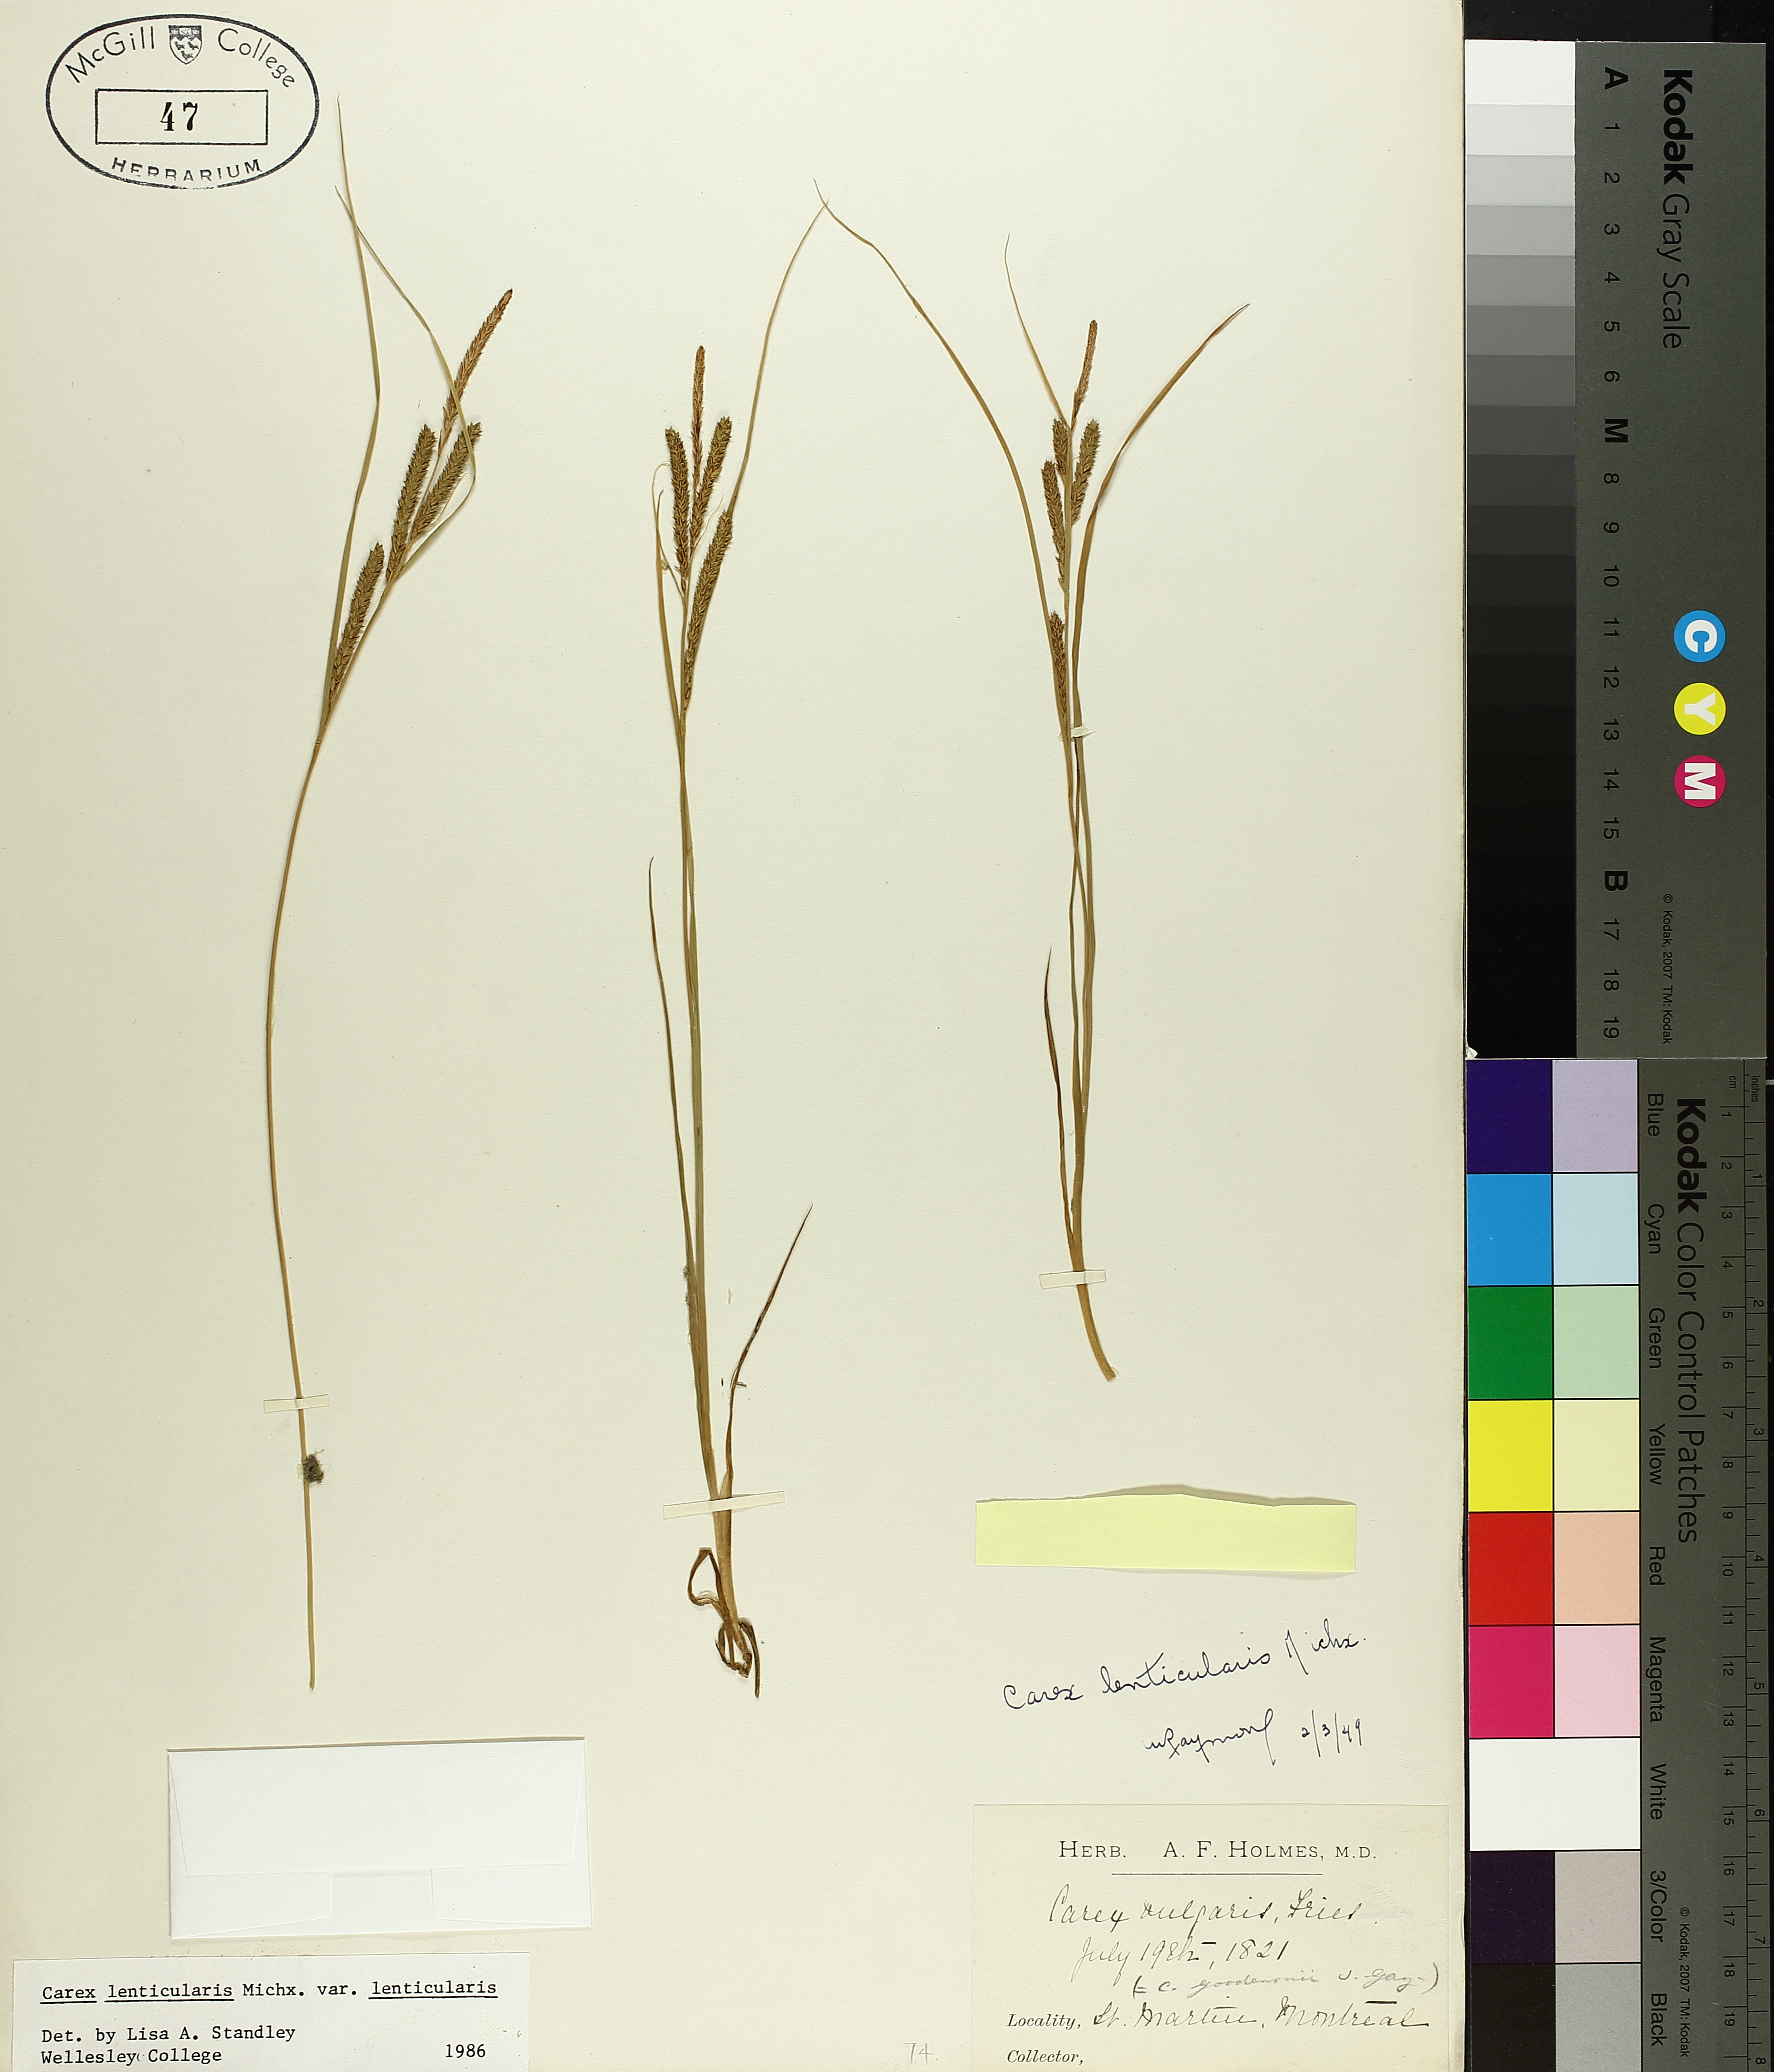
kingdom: Plantae
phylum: Tracheophyta
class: Liliopsida
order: Poales
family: Cyperaceae
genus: Carex
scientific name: Carex lenticularis
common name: Lakeshore sedge
